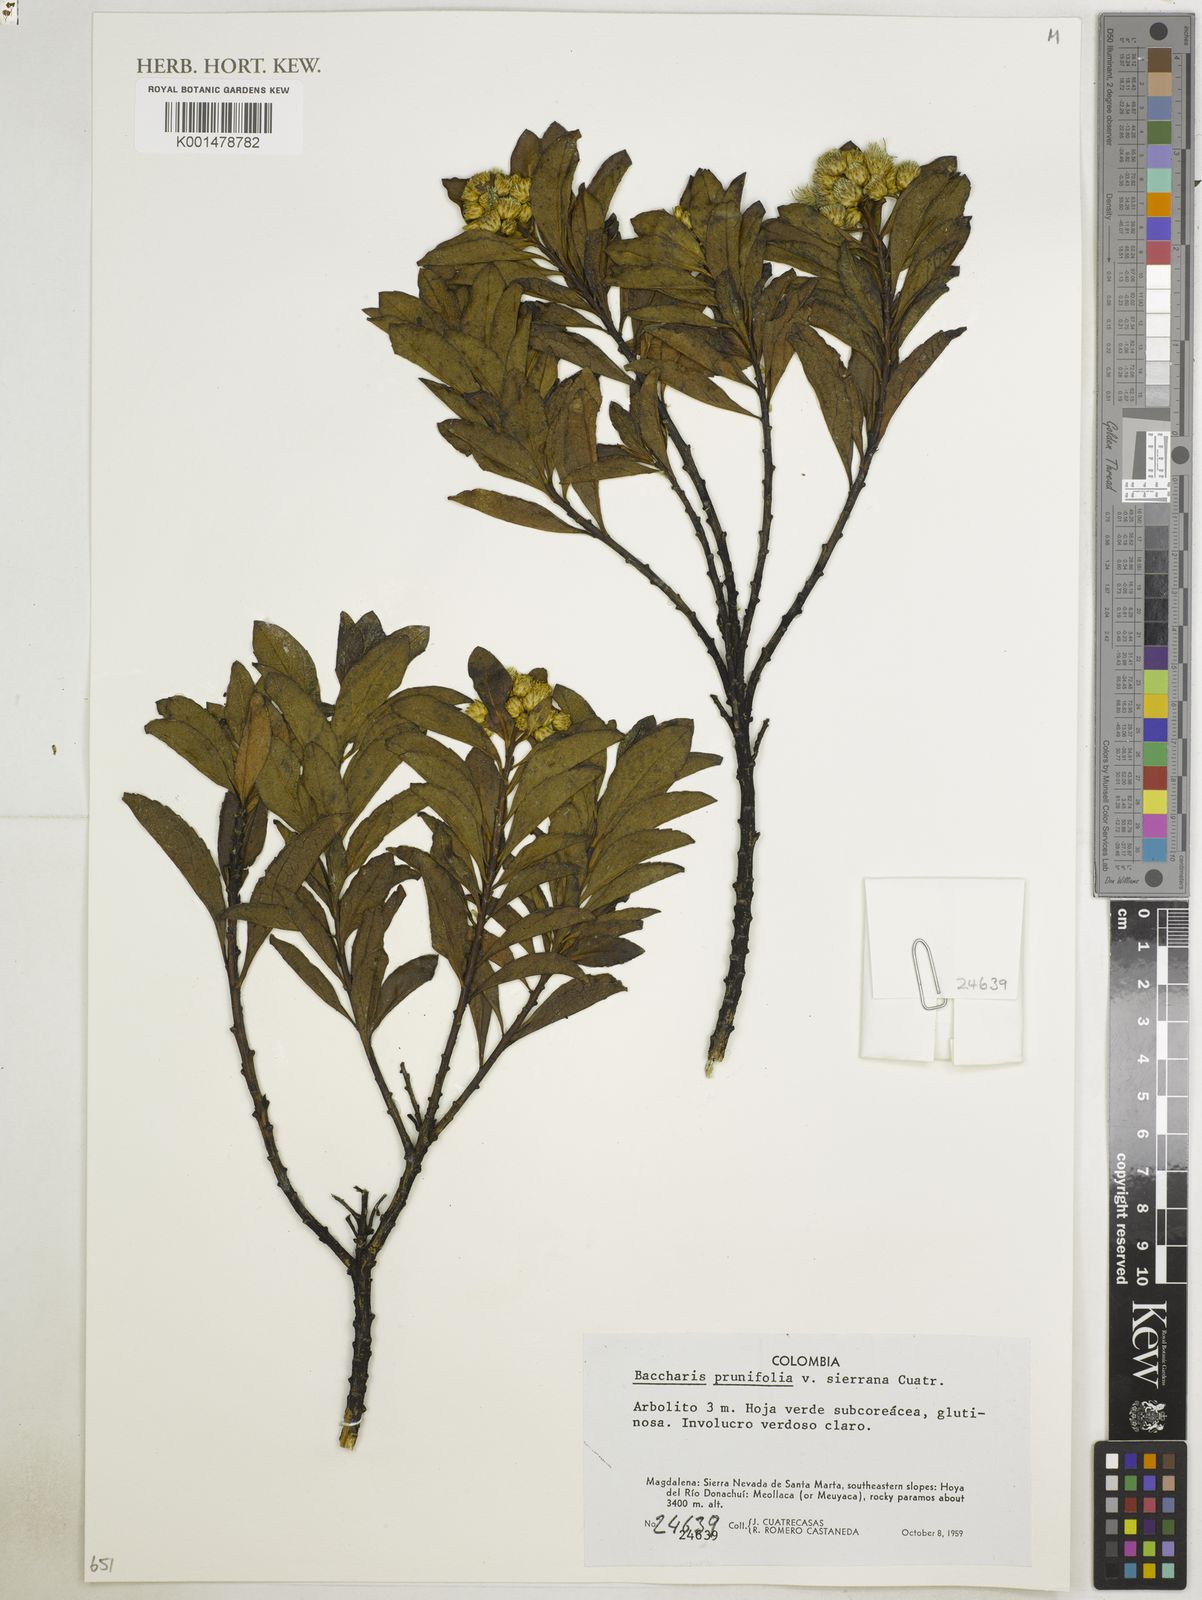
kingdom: Plantae
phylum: Tracheophyta
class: Magnoliopsida
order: Asterales
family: Asteraceae
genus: Baccharis
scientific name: Baccharis prunifolia
